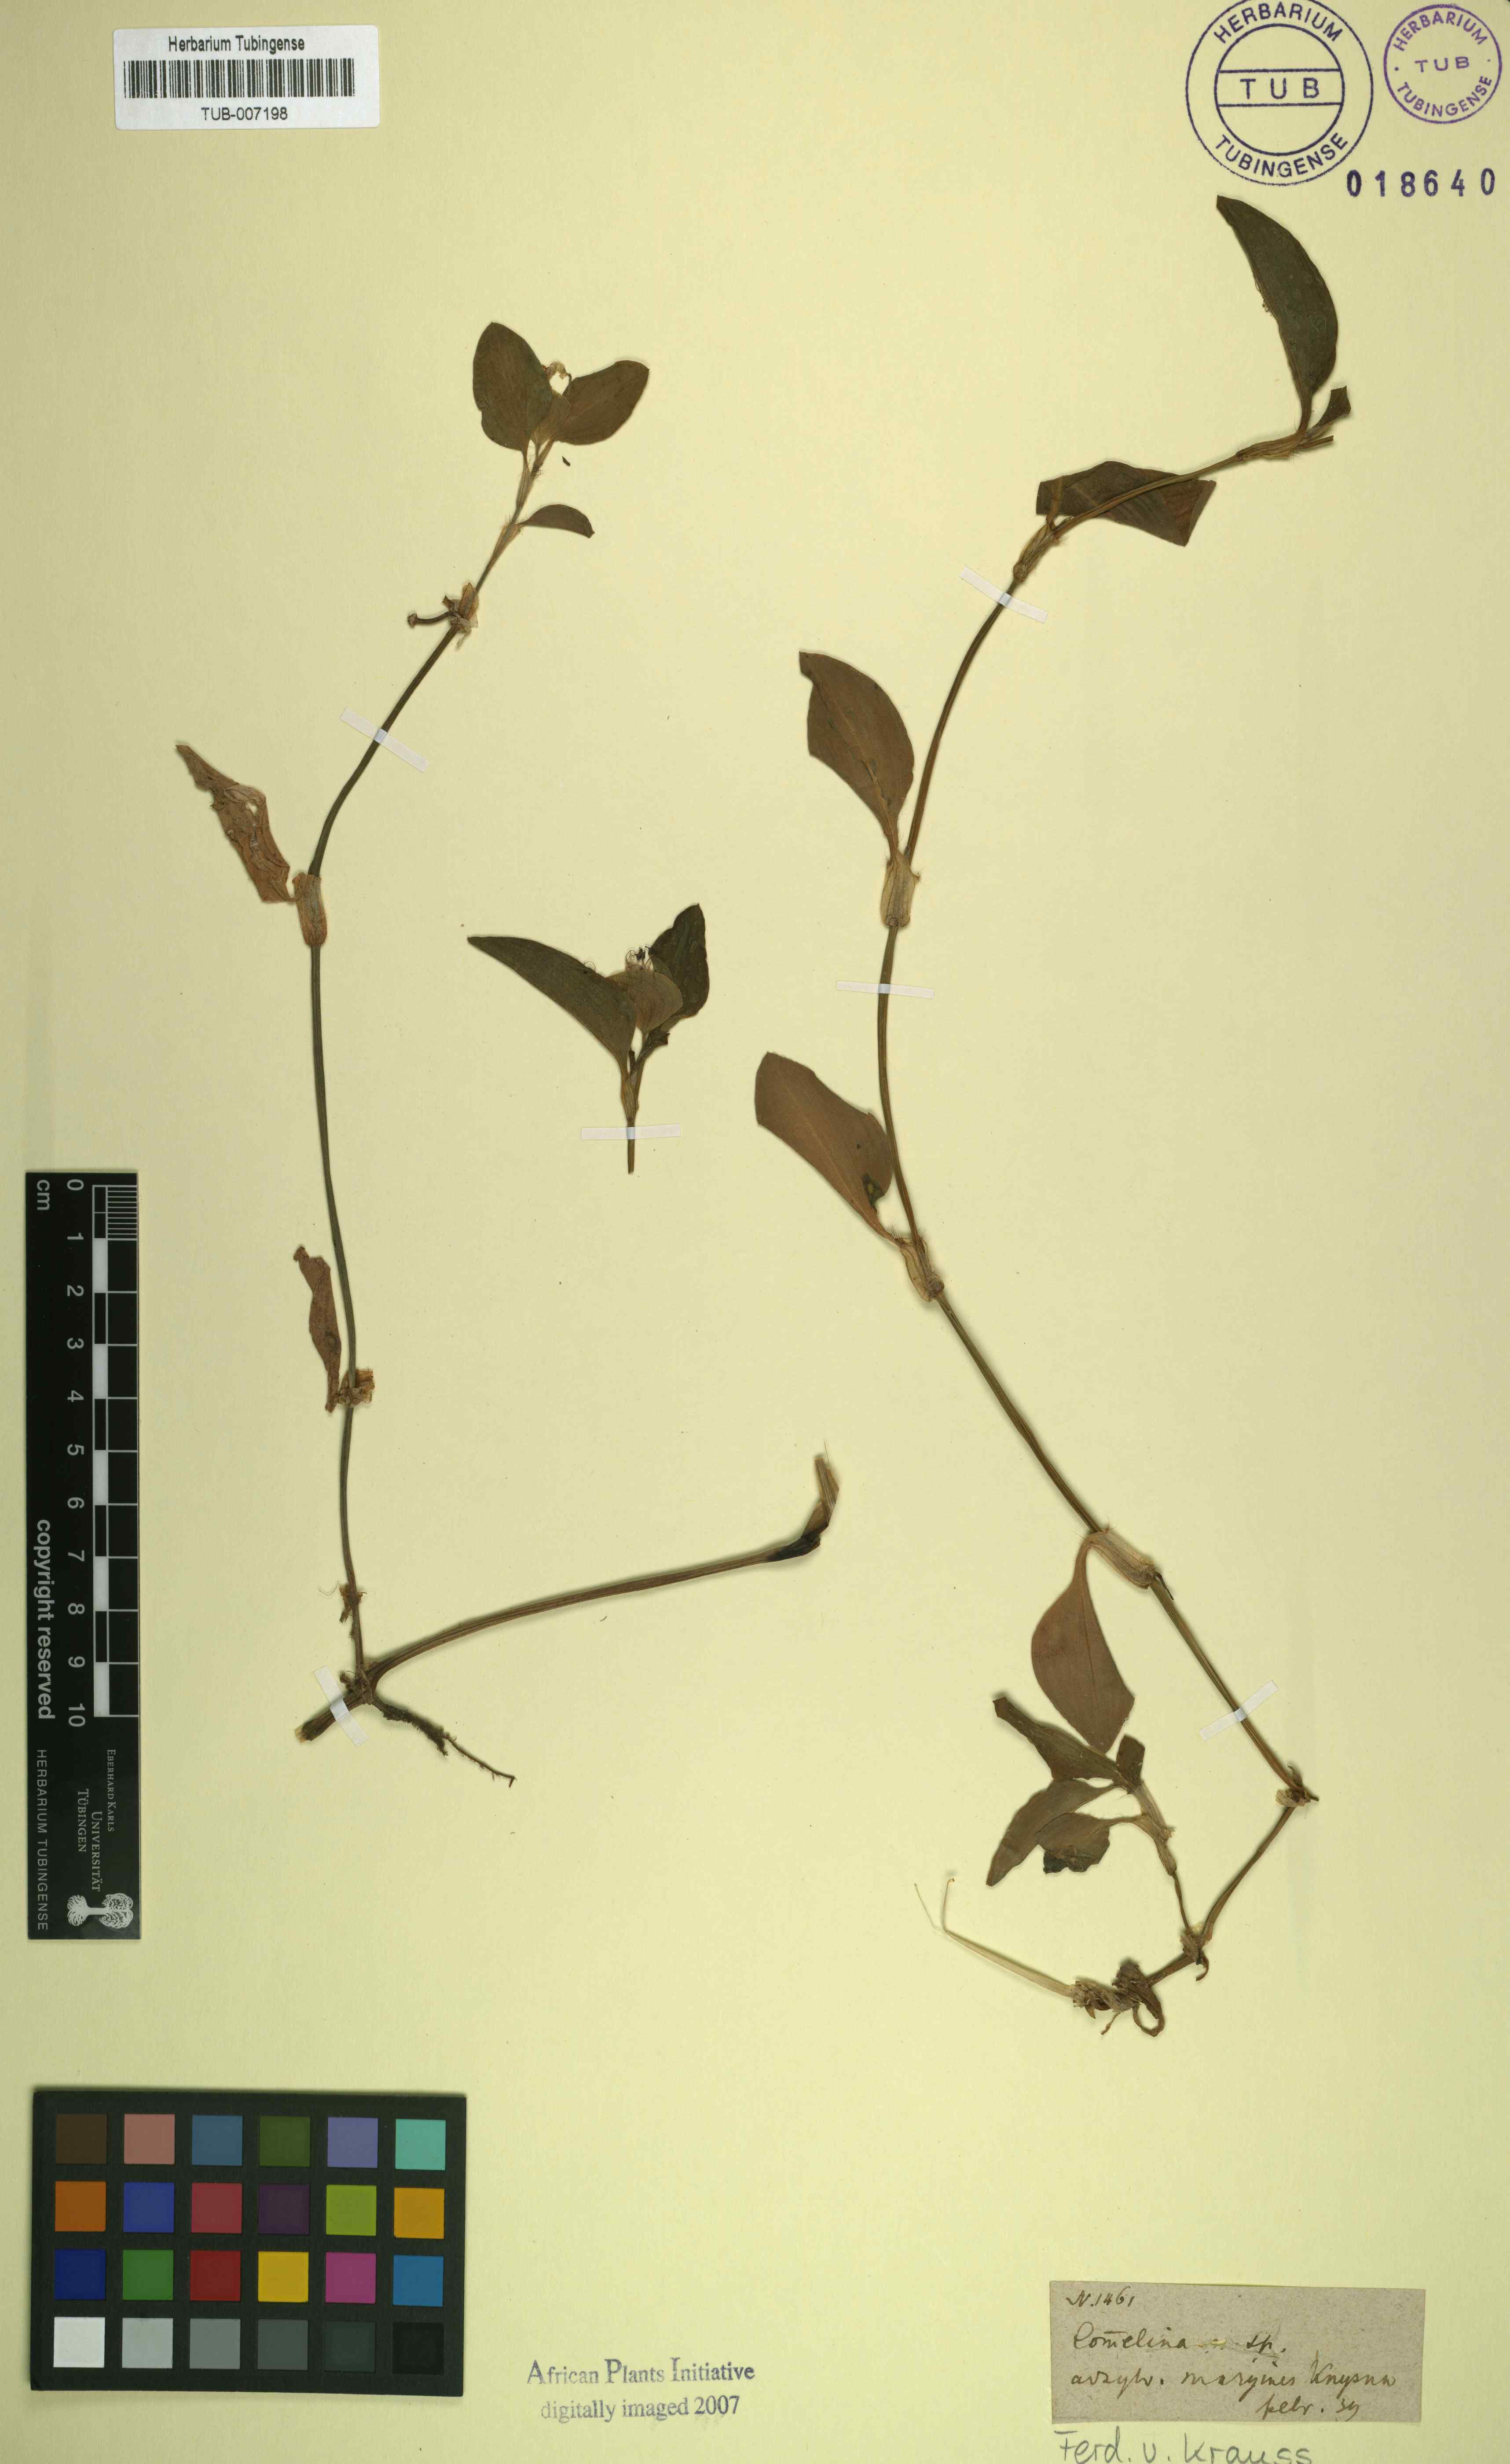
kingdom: Plantae
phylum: Tracheophyta
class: Liliopsida
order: Commelinales
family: Commelinaceae
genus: Commelina
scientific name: Commelina
